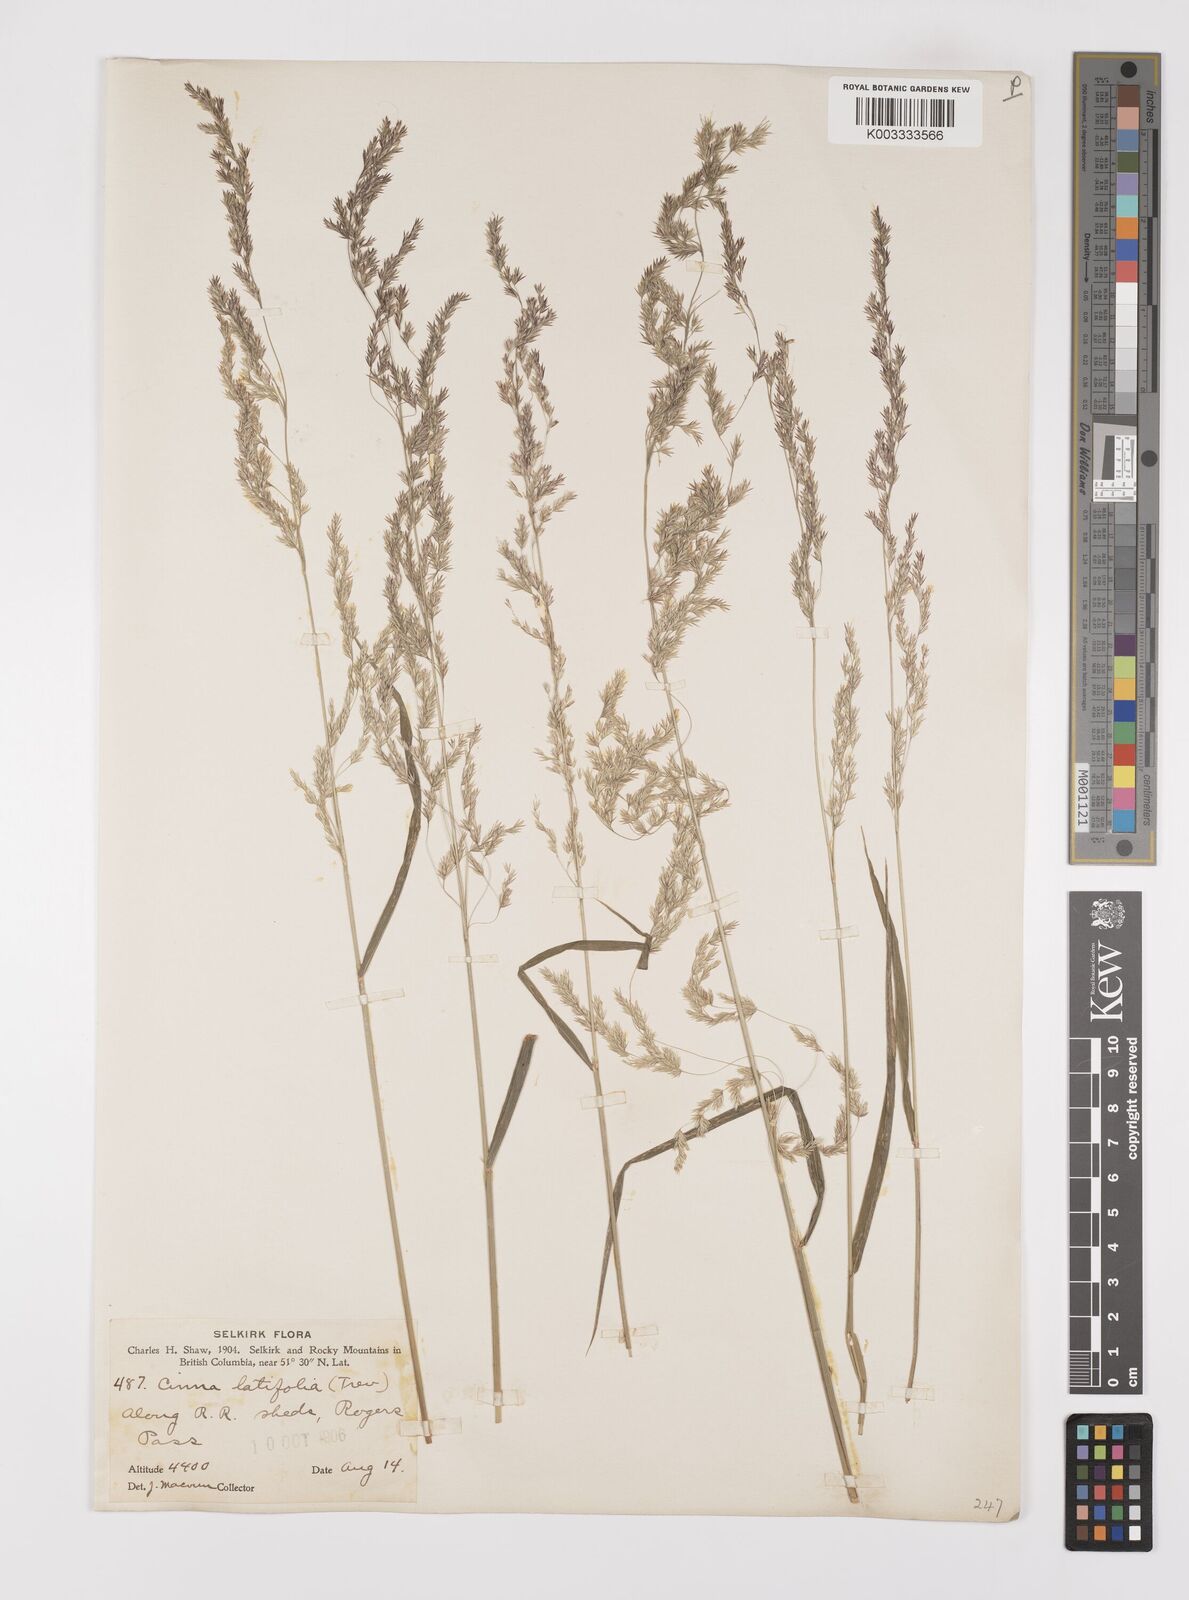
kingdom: Plantae
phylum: Tracheophyta
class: Liliopsida
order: Poales
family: Poaceae
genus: Cinna
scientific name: Cinna latifolia
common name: Drooping woodreed
